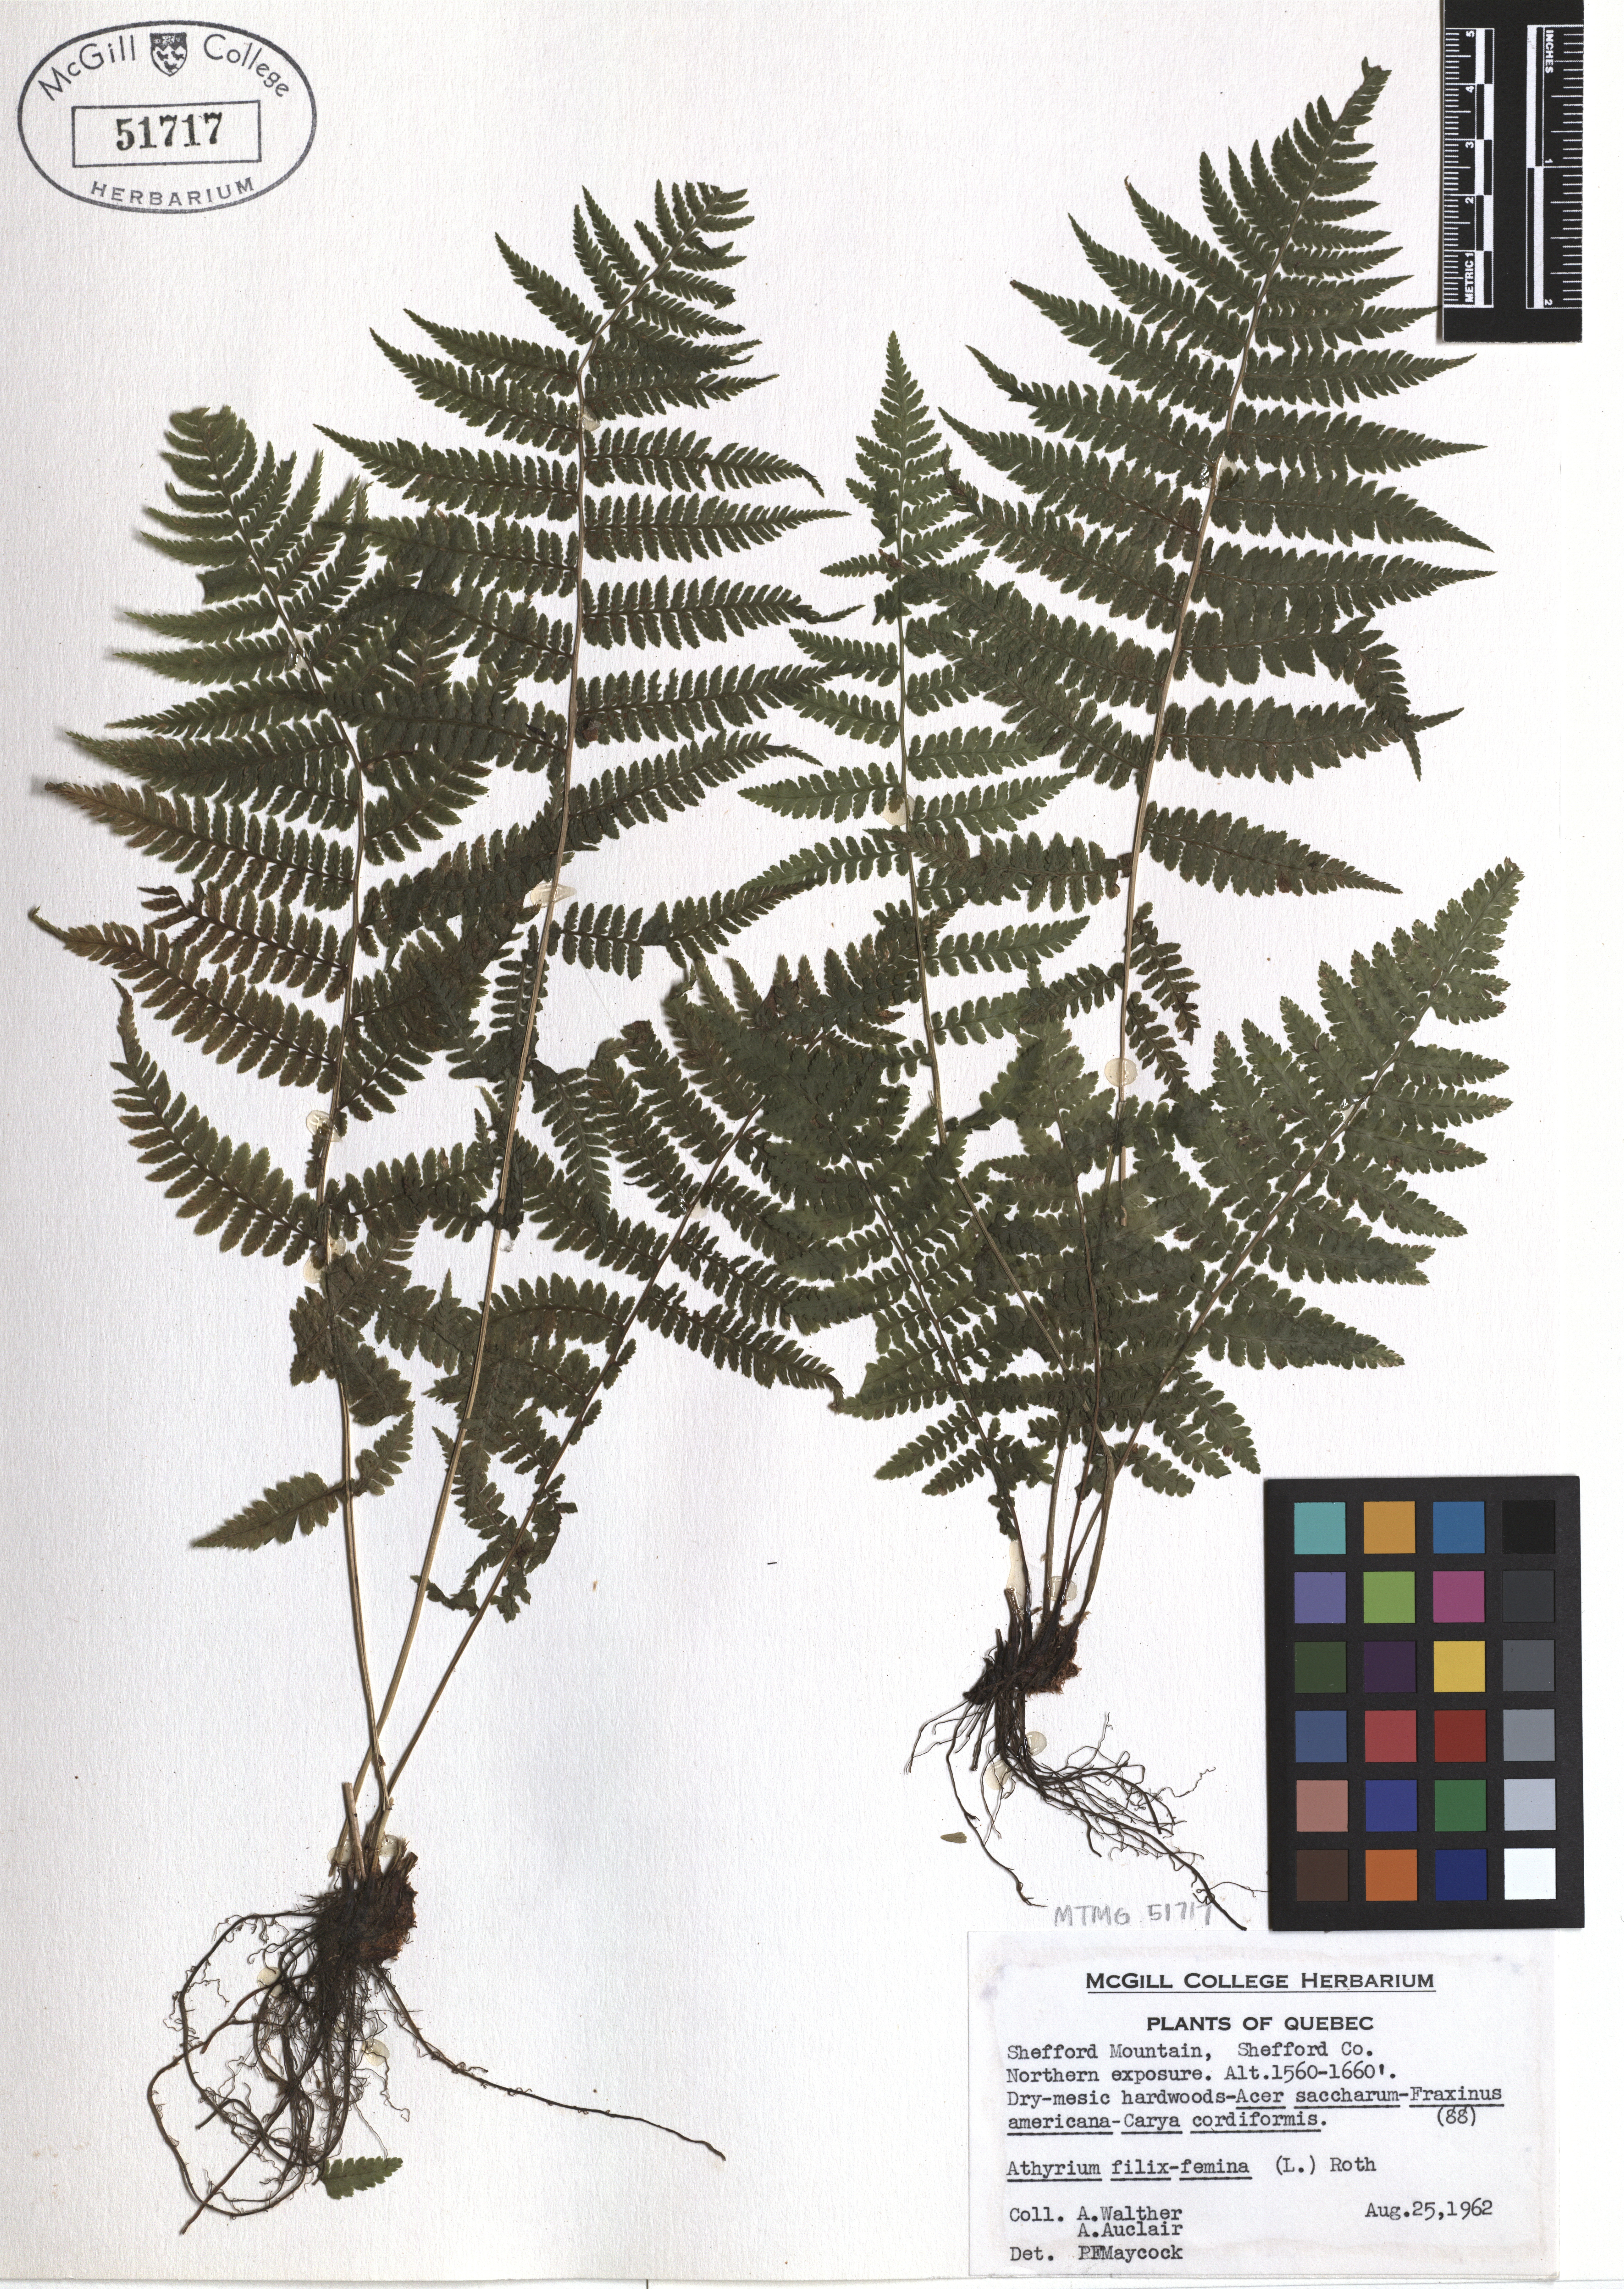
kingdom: Plantae
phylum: Tracheophyta
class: Polypodiopsida
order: Polypodiales
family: Athyriaceae
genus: Athyrium
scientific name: Athyrium filix-femina
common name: Lady fern
